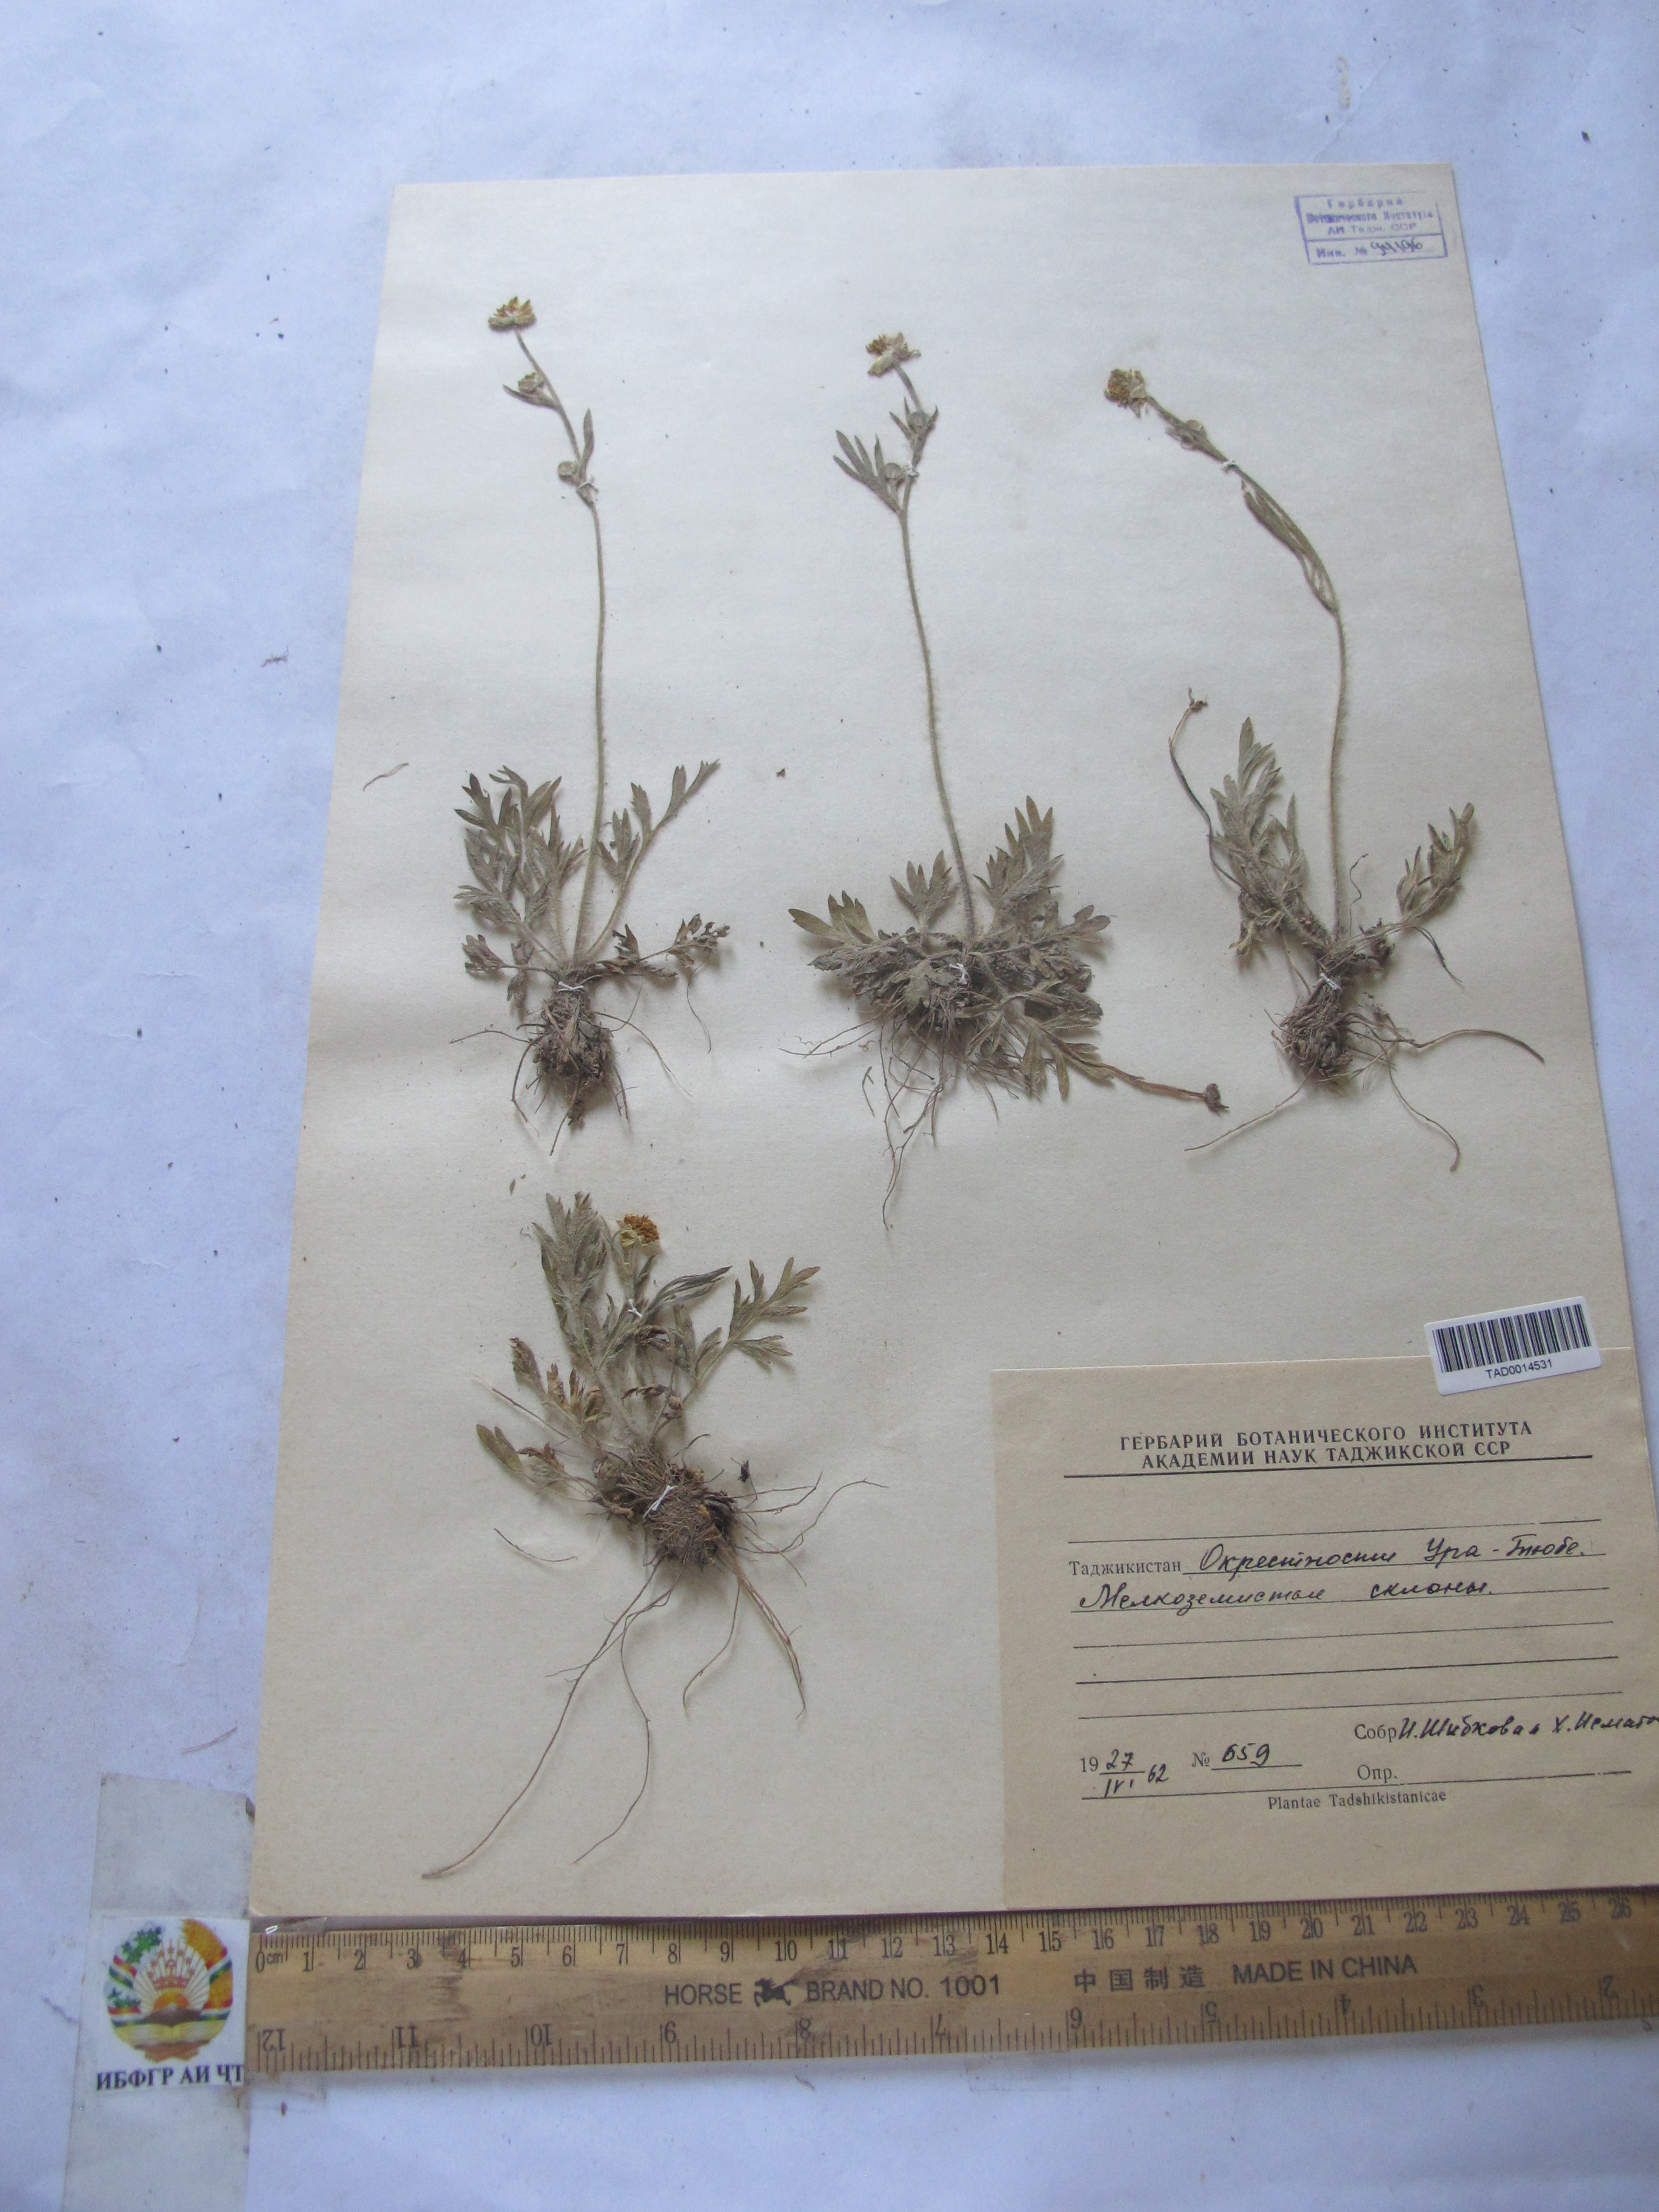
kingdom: Plantae
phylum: Tracheophyta
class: Magnoliopsida
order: Ranunculales
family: Ranunculaceae
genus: Ranunculus
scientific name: Ranunculus leptorrhynchus
